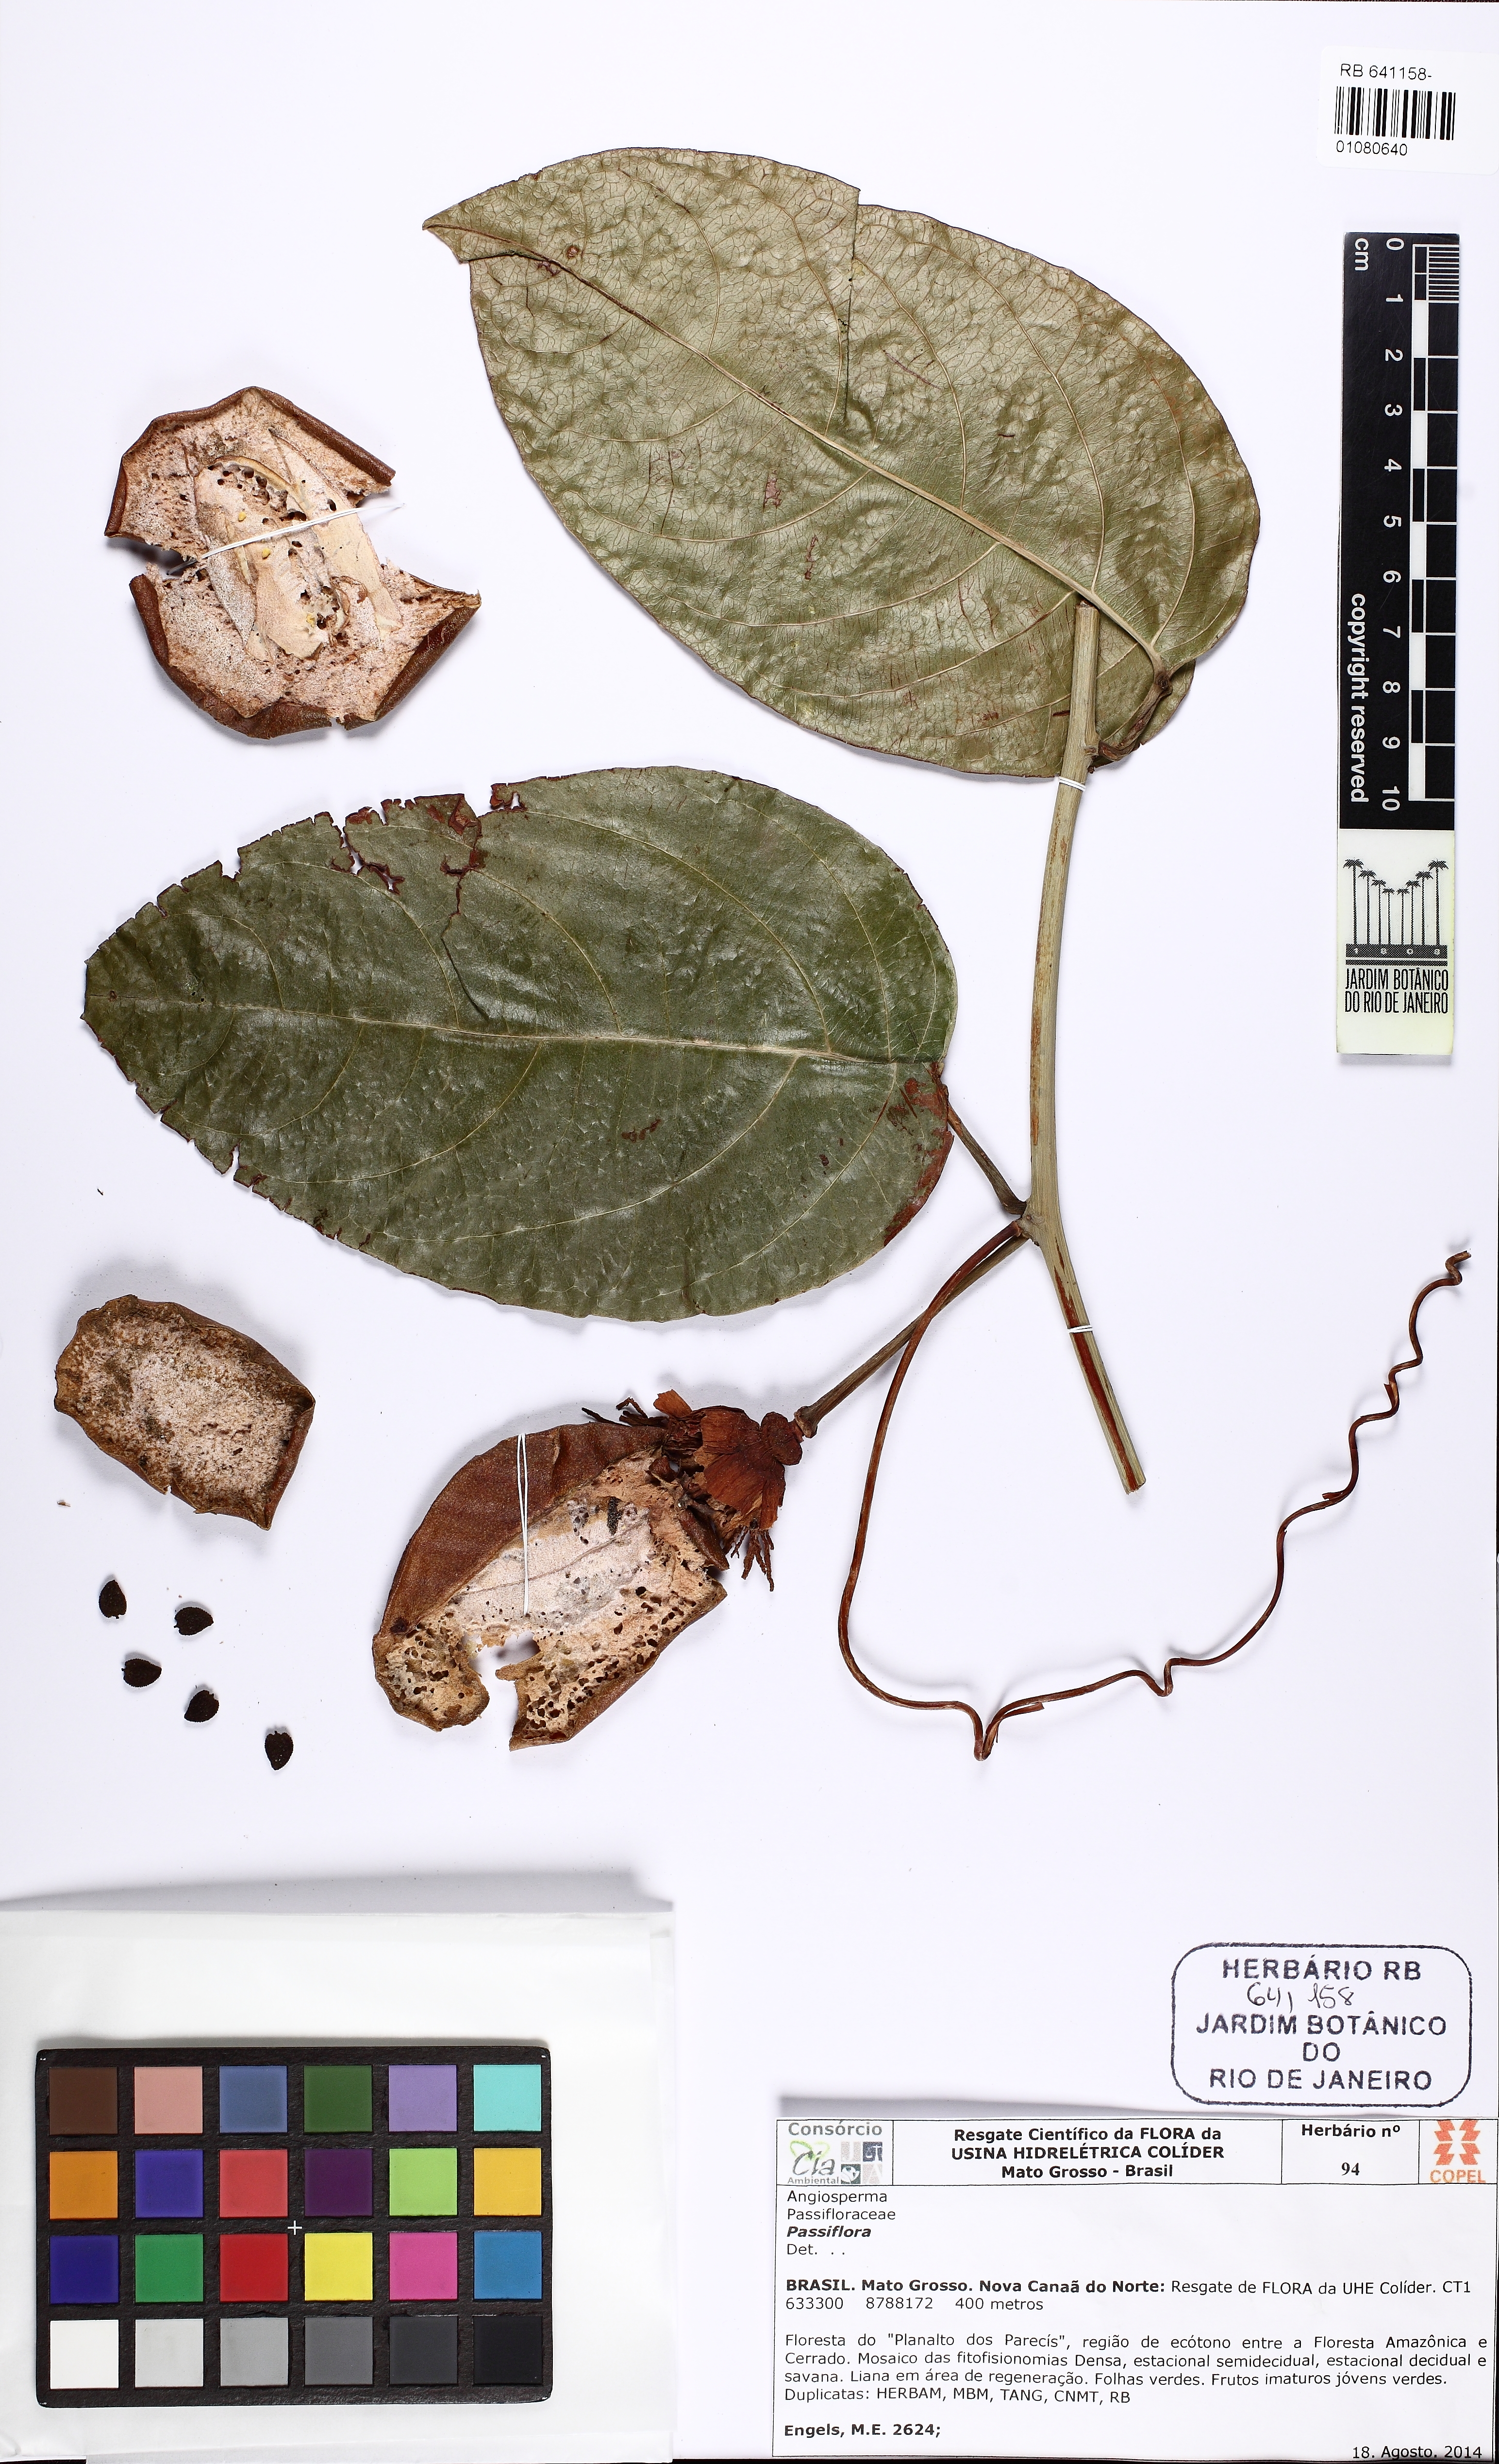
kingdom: Plantae
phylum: Tracheophyta
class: Magnoliopsida
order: Malpighiales
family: Passifloraceae
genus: Passiflora
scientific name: Passiflora
